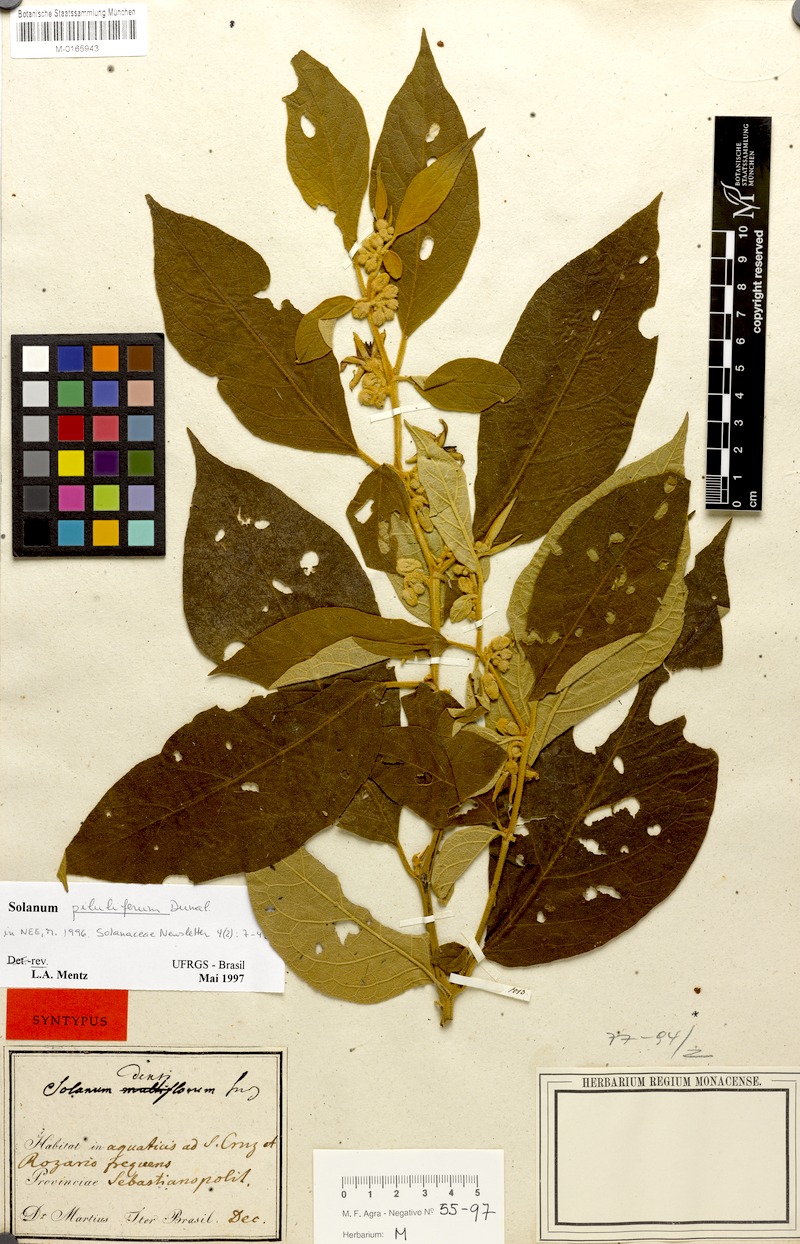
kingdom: Plantae
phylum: Tracheophyta
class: Magnoliopsida
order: Solanales
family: Solanaceae
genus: Solanum
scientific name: Solanum piluliferum
